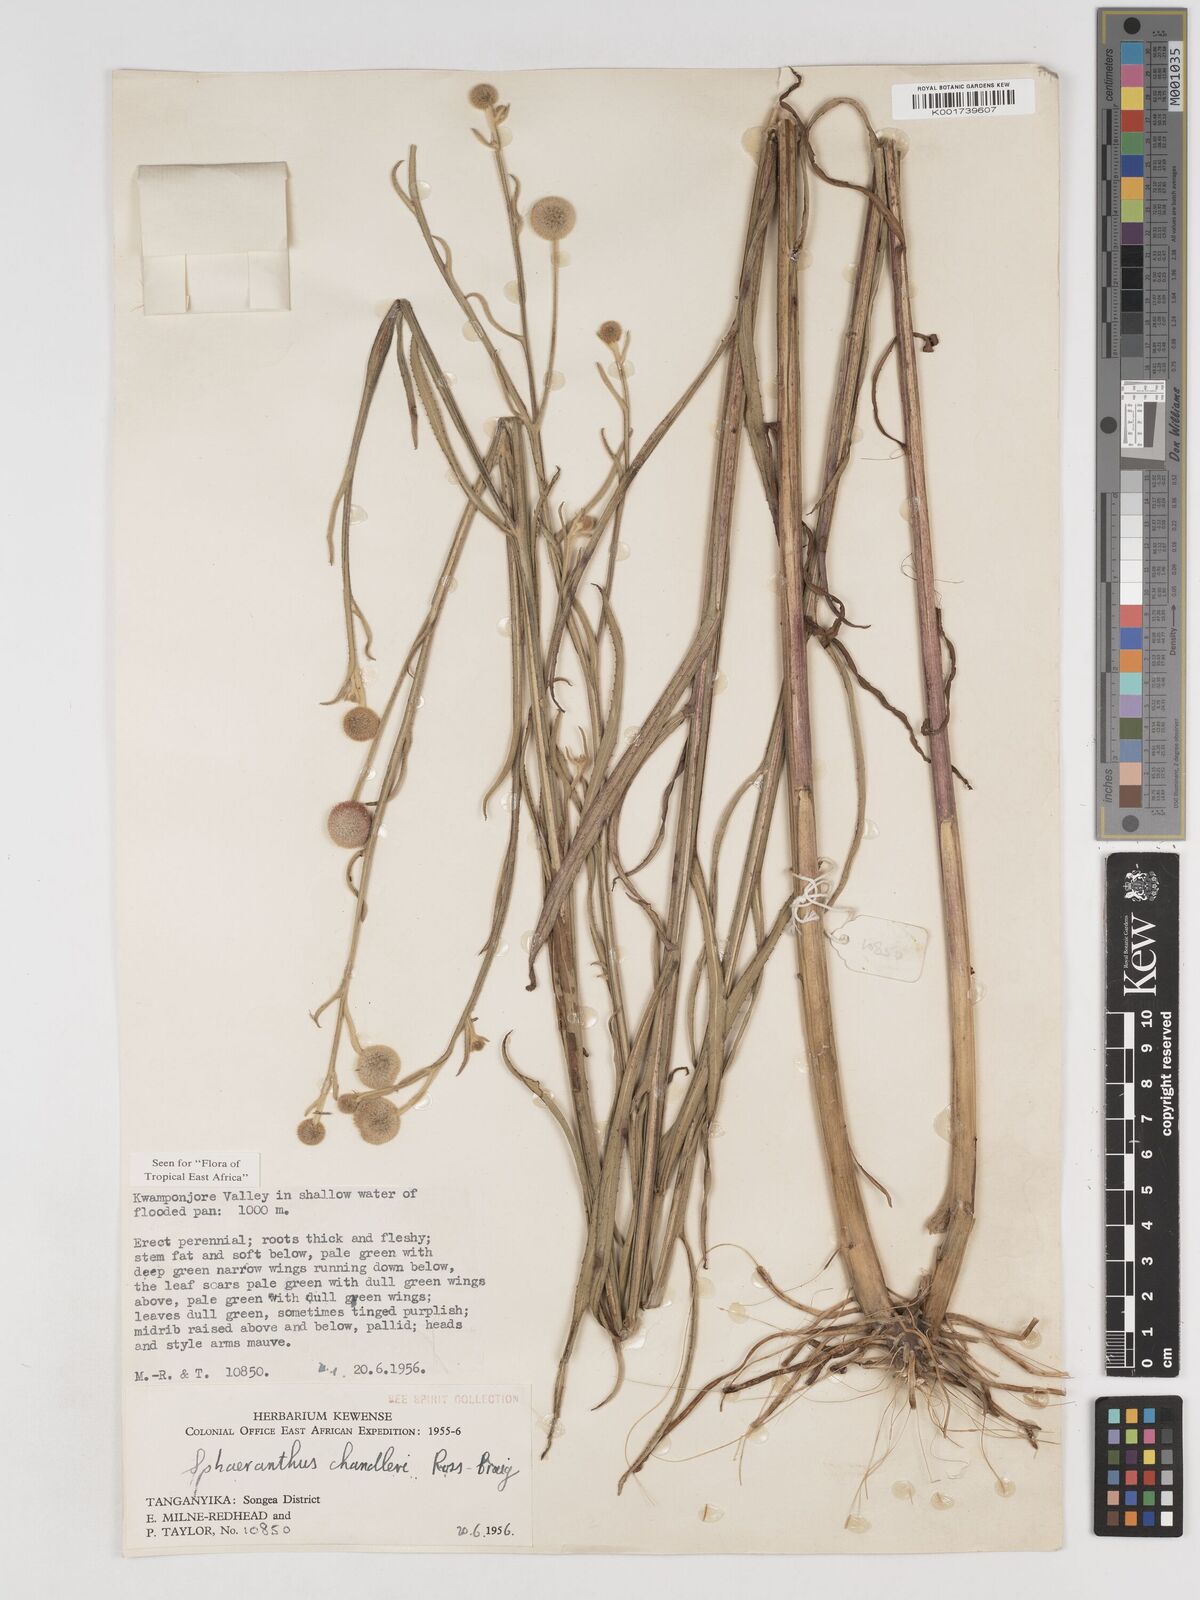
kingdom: Plantae
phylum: Tracheophyta
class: Magnoliopsida
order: Asterales
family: Asteraceae
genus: Sphaeranthus
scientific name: Sphaeranthus chandleri
